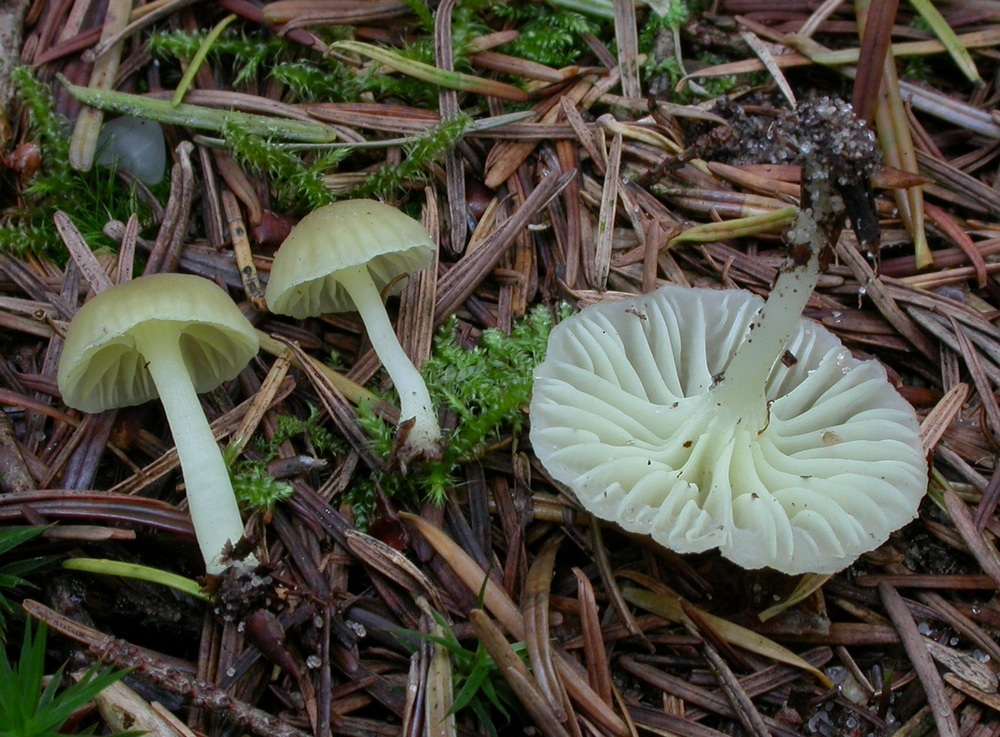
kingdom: Fungi
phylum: Basidiomycota
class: Agaricomycetes
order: Agaricales
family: Hygrophoraceae
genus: Chrysomphalina
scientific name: Chrysomphalina grossula
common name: stød-gyldenblad
